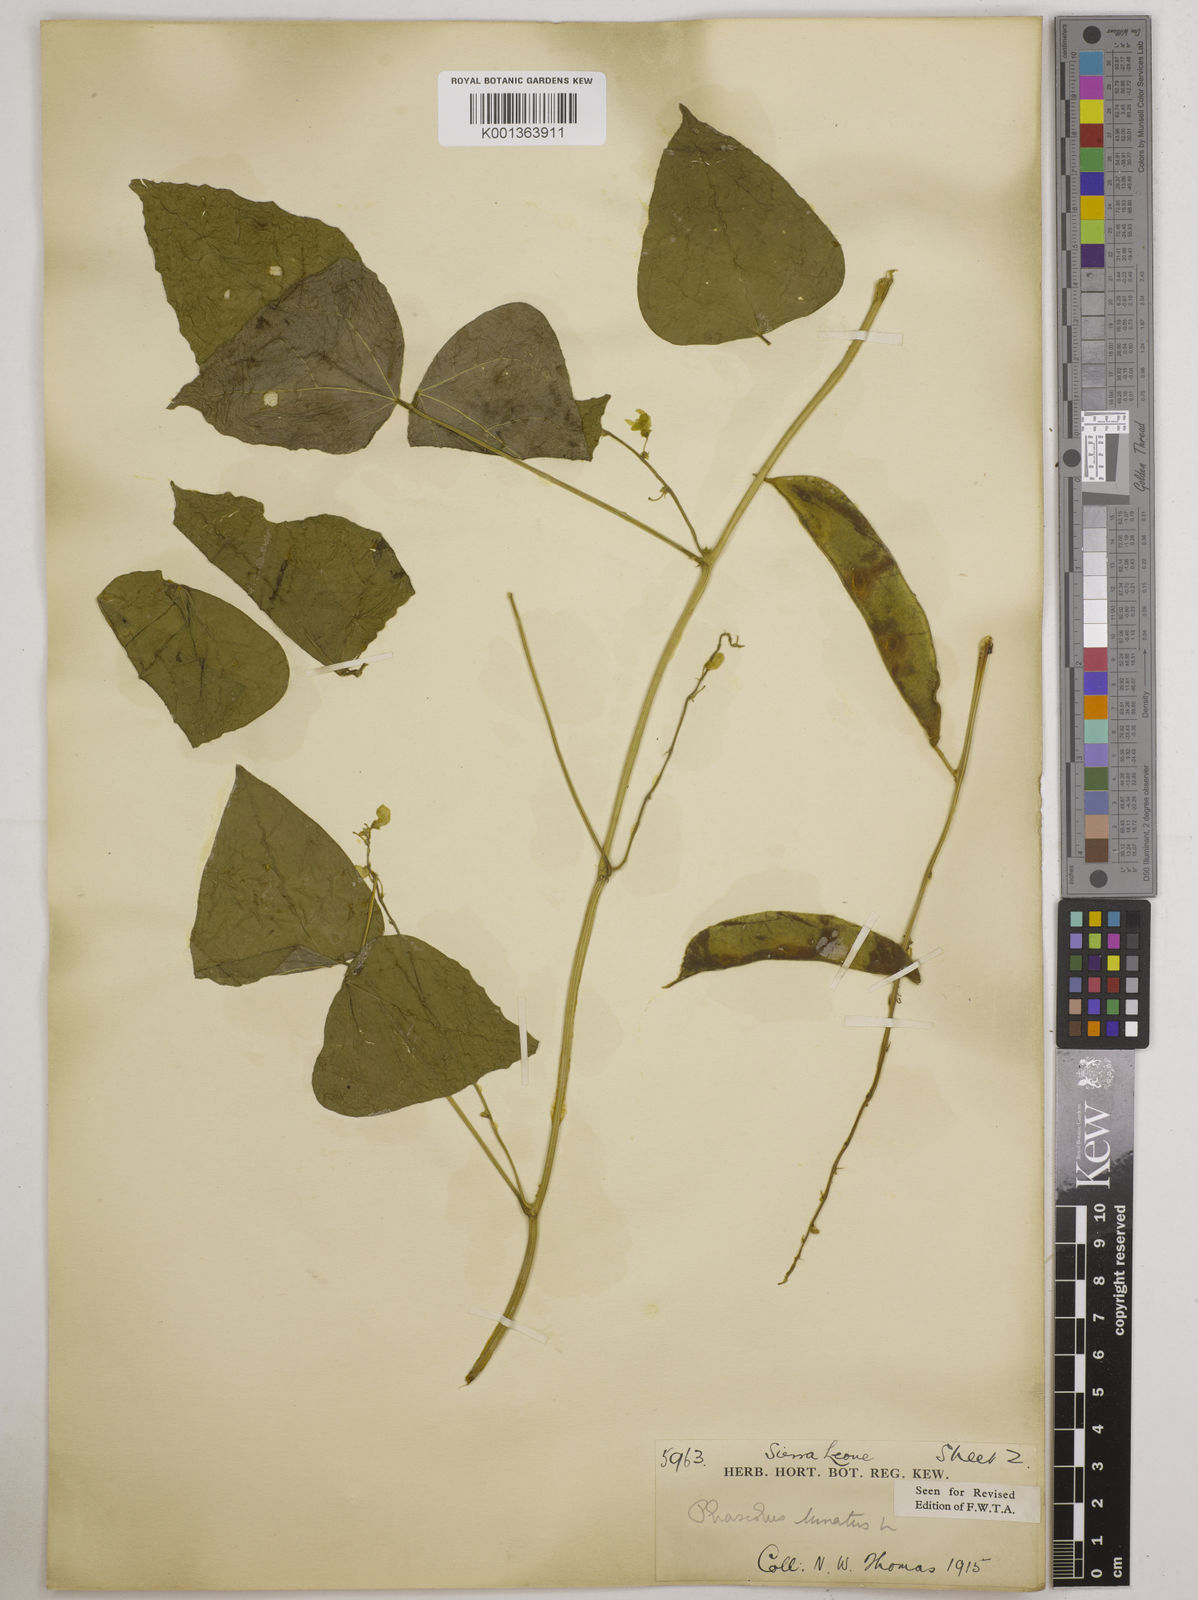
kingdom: Plantae
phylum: Tracheophyta
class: Magnoliopsida
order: Fabales
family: Fabaceae
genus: Phaseolus
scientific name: Phaseolus lunatus
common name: Sieva bean
